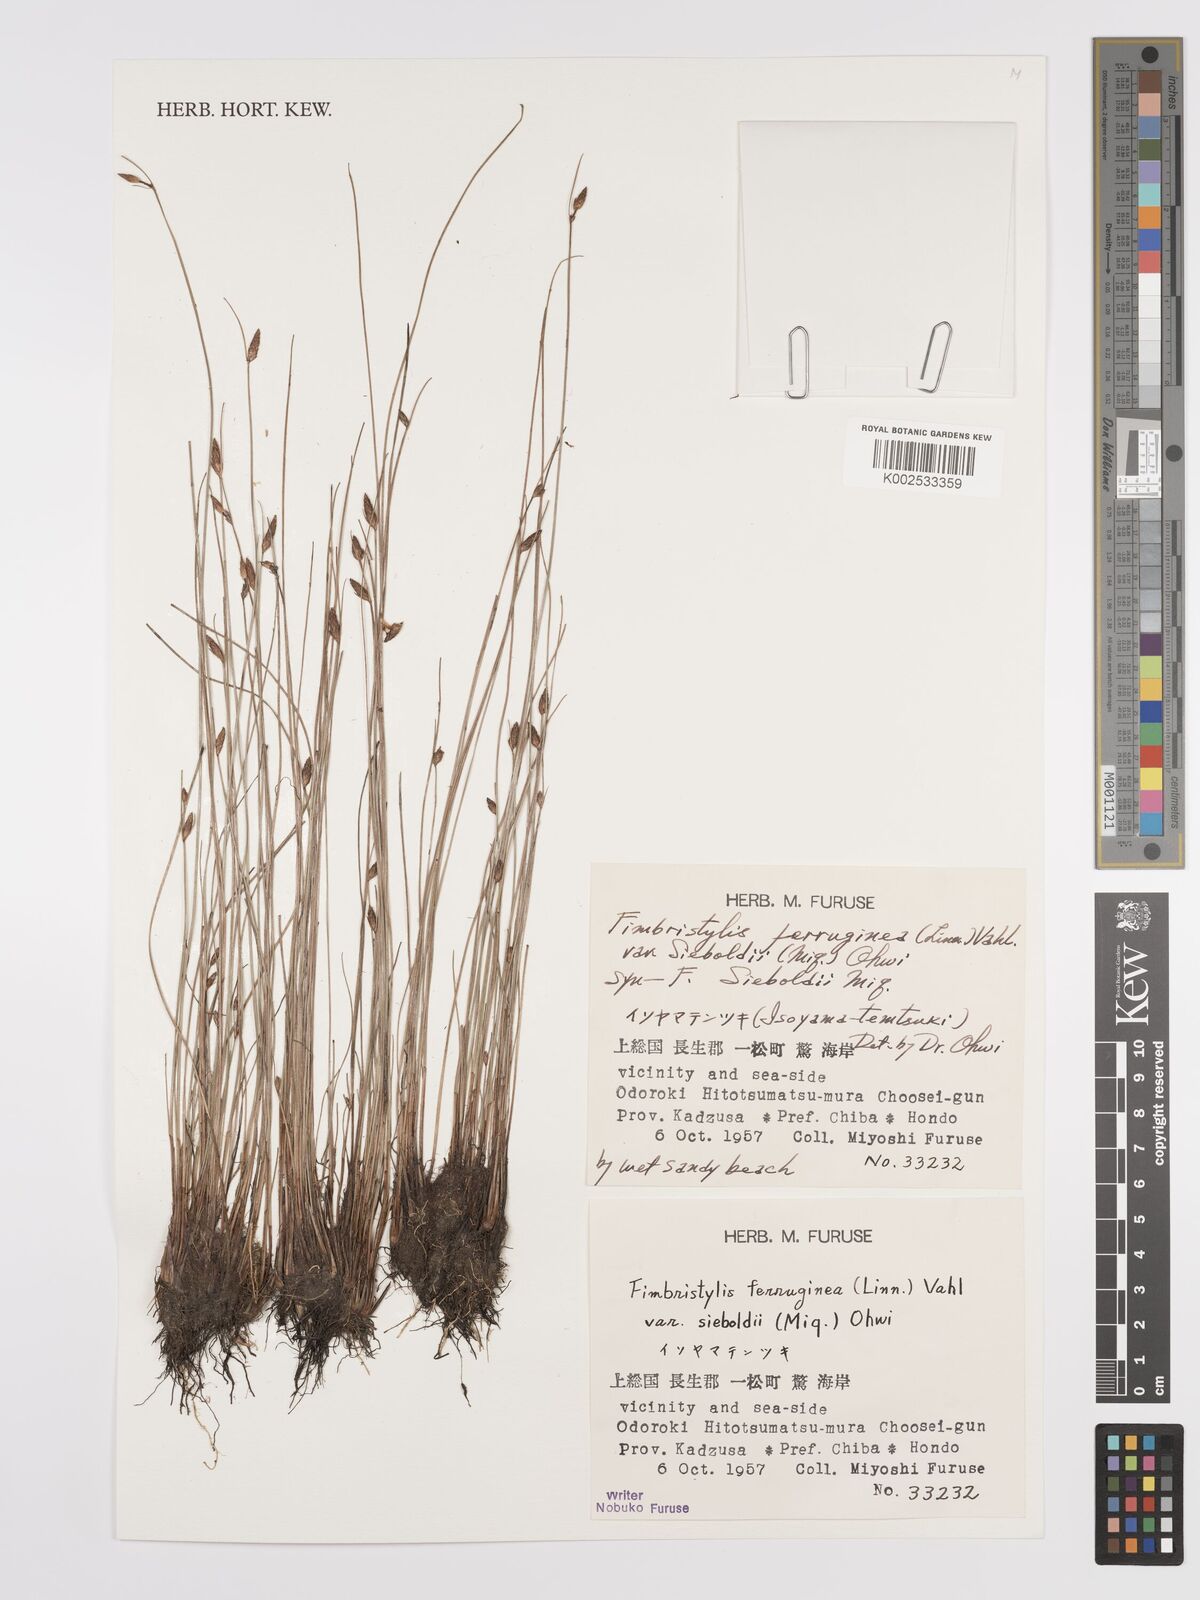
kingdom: Plantae
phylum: Tracheophyta
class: Liliopsida
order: Poales
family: Cyperaceae
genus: Fimbristylis
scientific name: Fimbristylis ferruginea
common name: West indian fimbry
